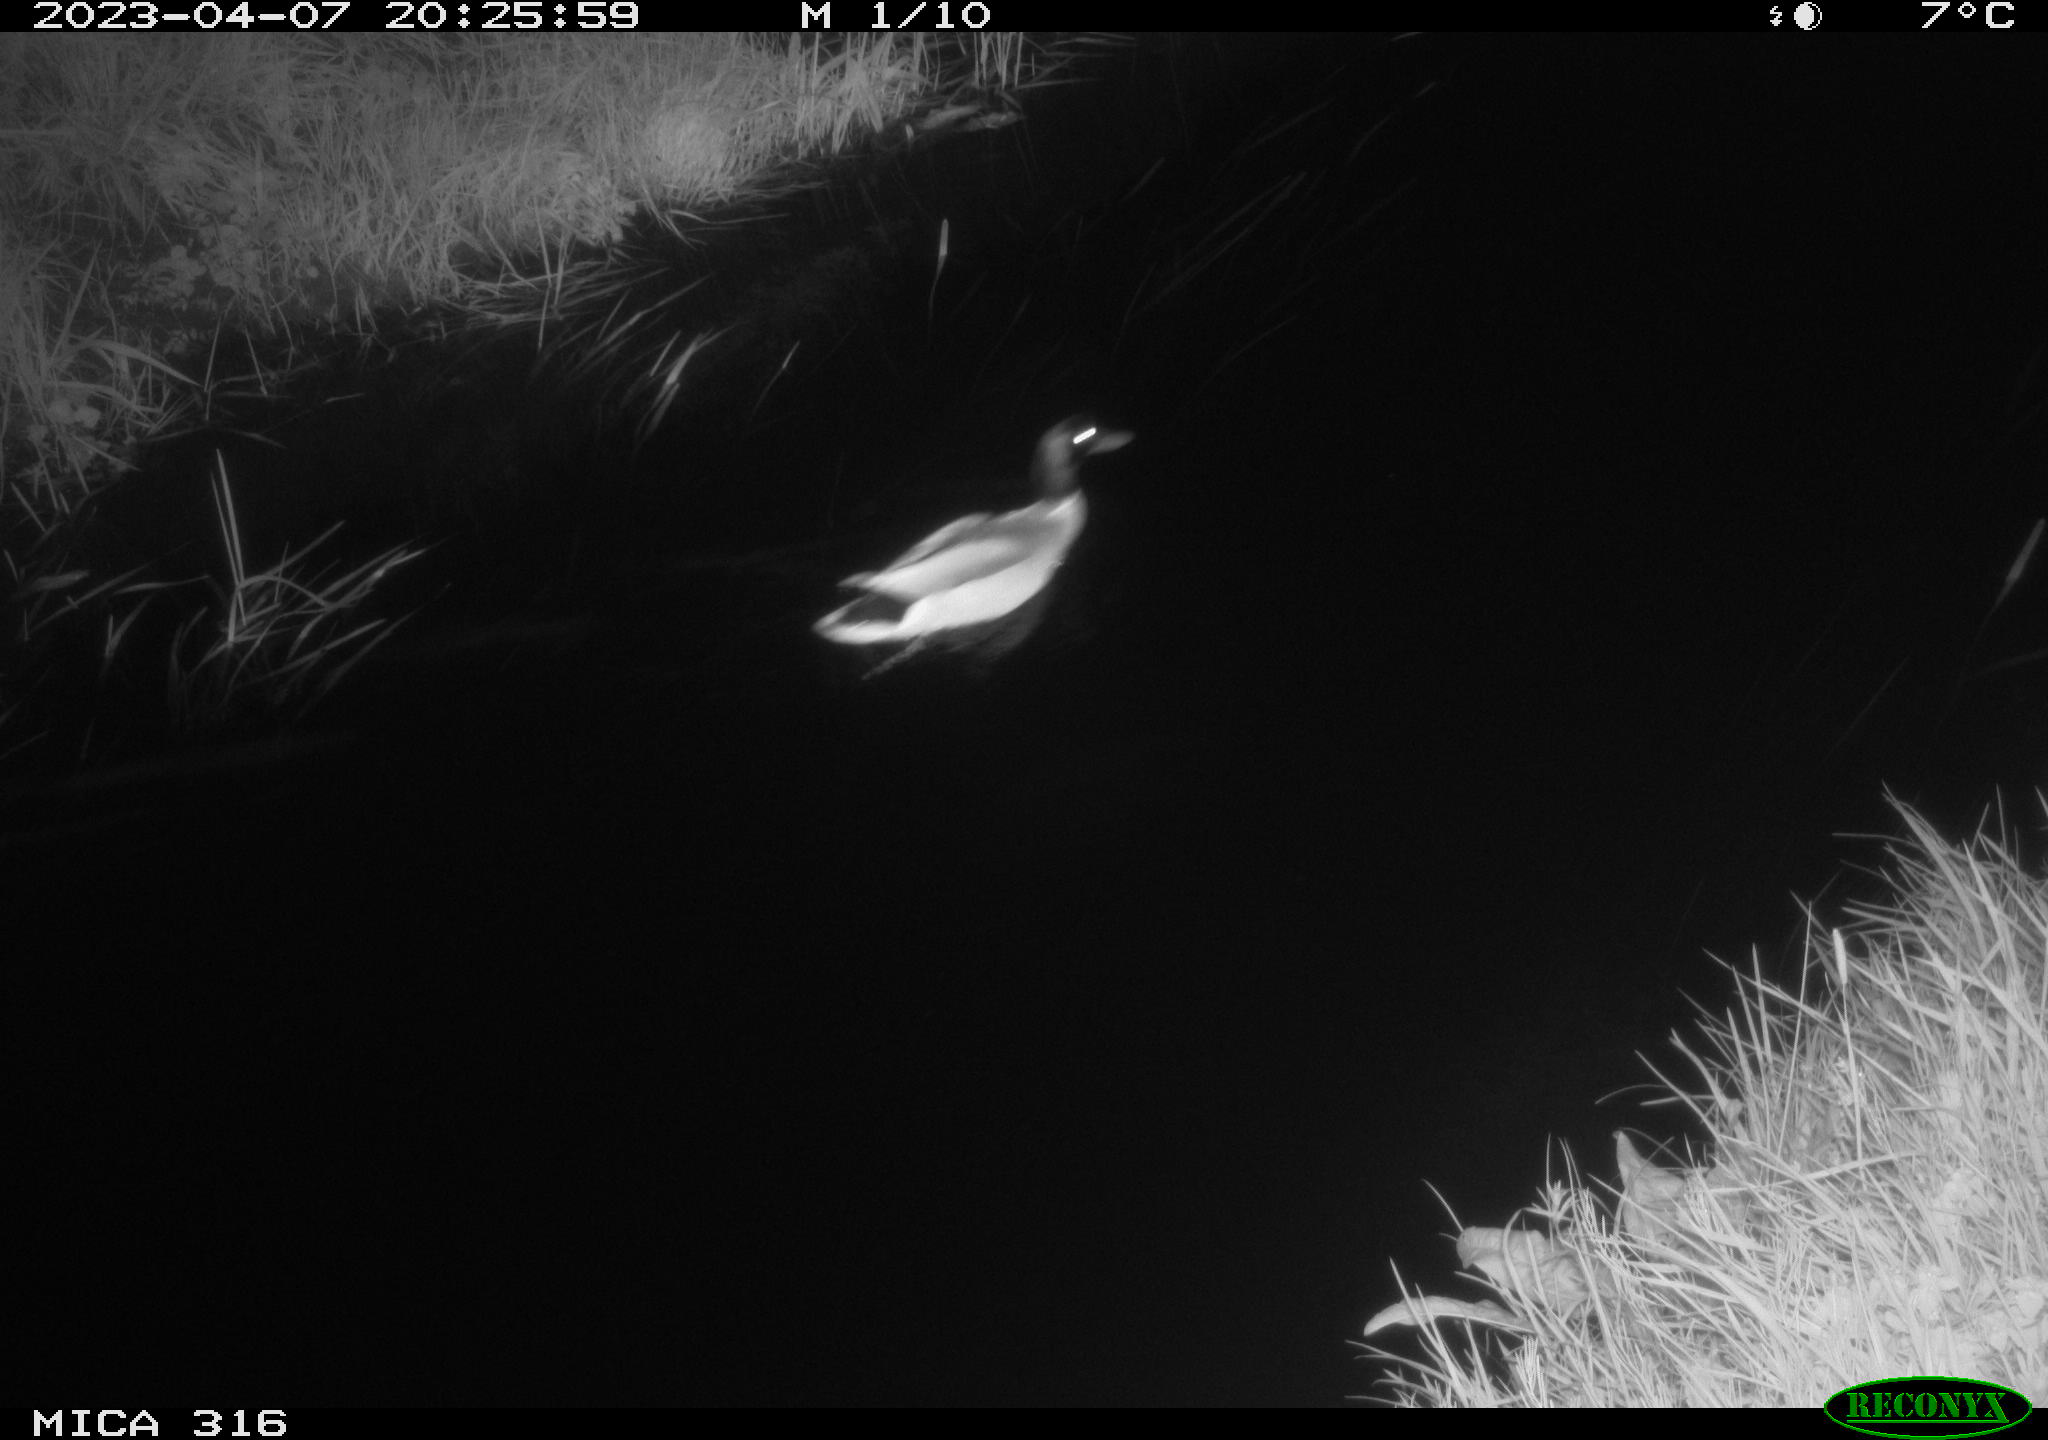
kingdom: Animalia
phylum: Chordata
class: Aves
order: Anseriformes
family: Anatidae
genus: Anas
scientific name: Anas
